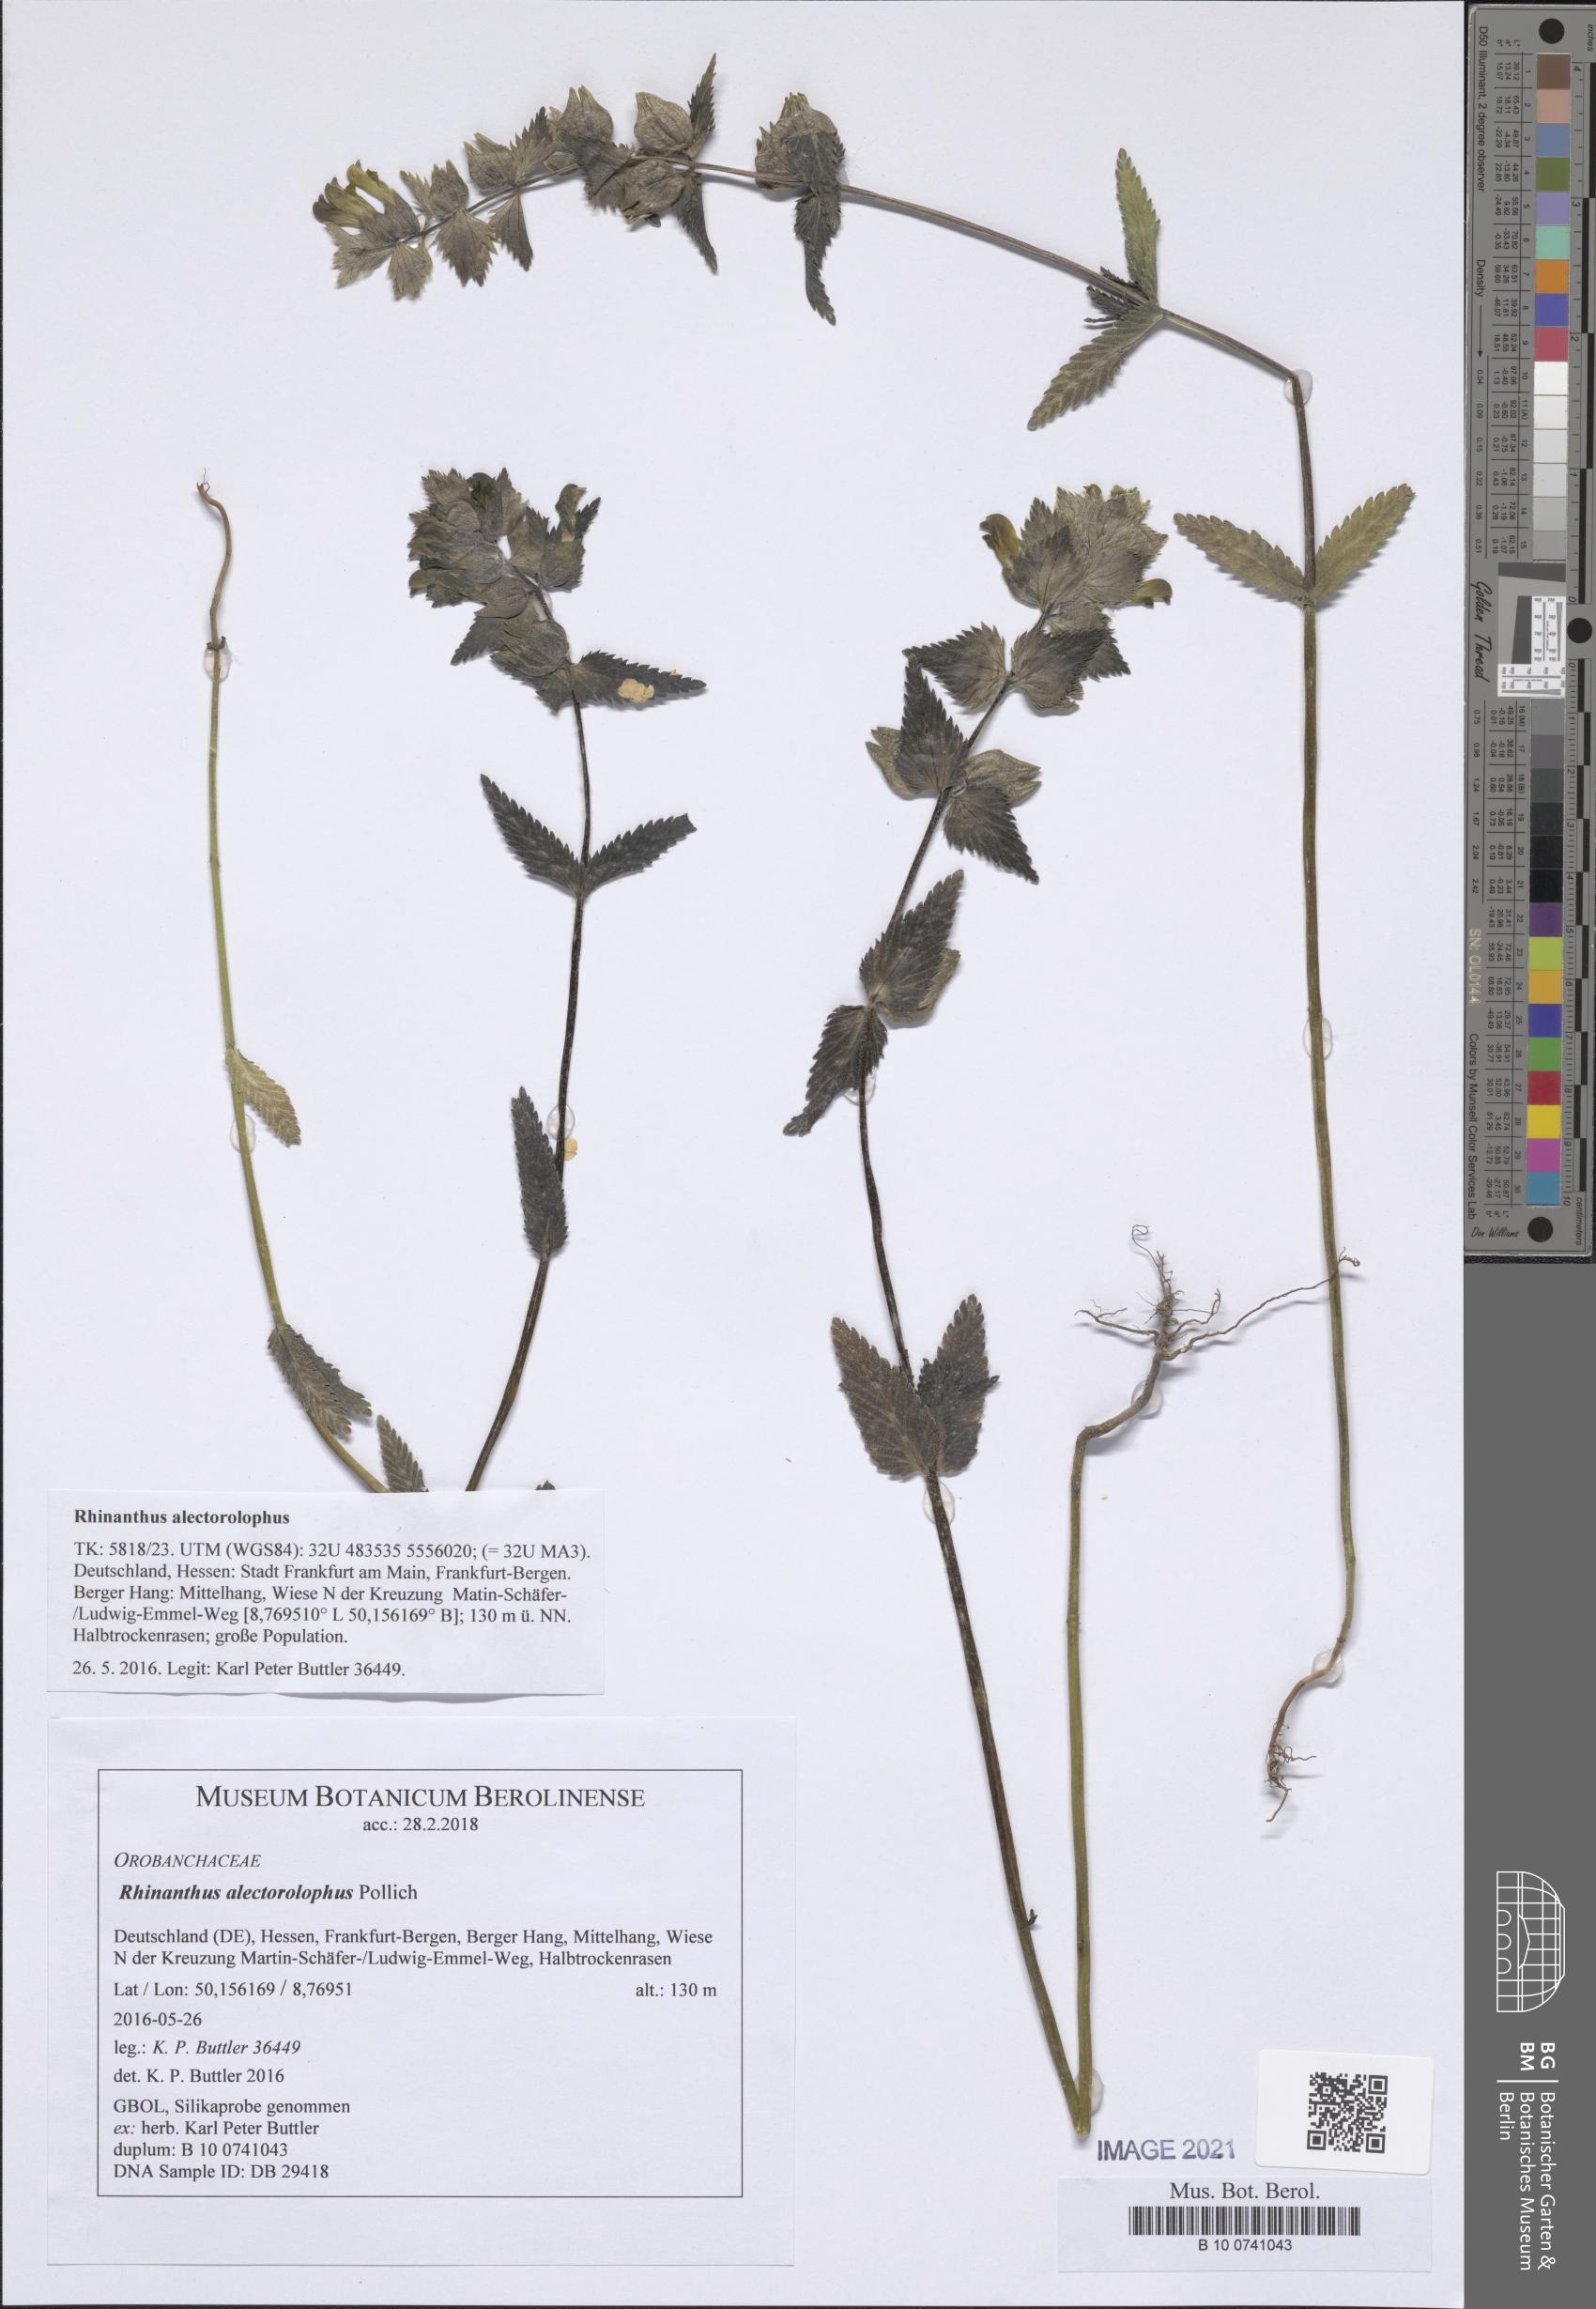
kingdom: Plantae
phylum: Tracheophyta
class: Magnoliopsida
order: Lamiales
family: Orobanchaceae
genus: Rhinanthus
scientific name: Rhinanthus alectorolophus
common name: Greater yellow-rattle
